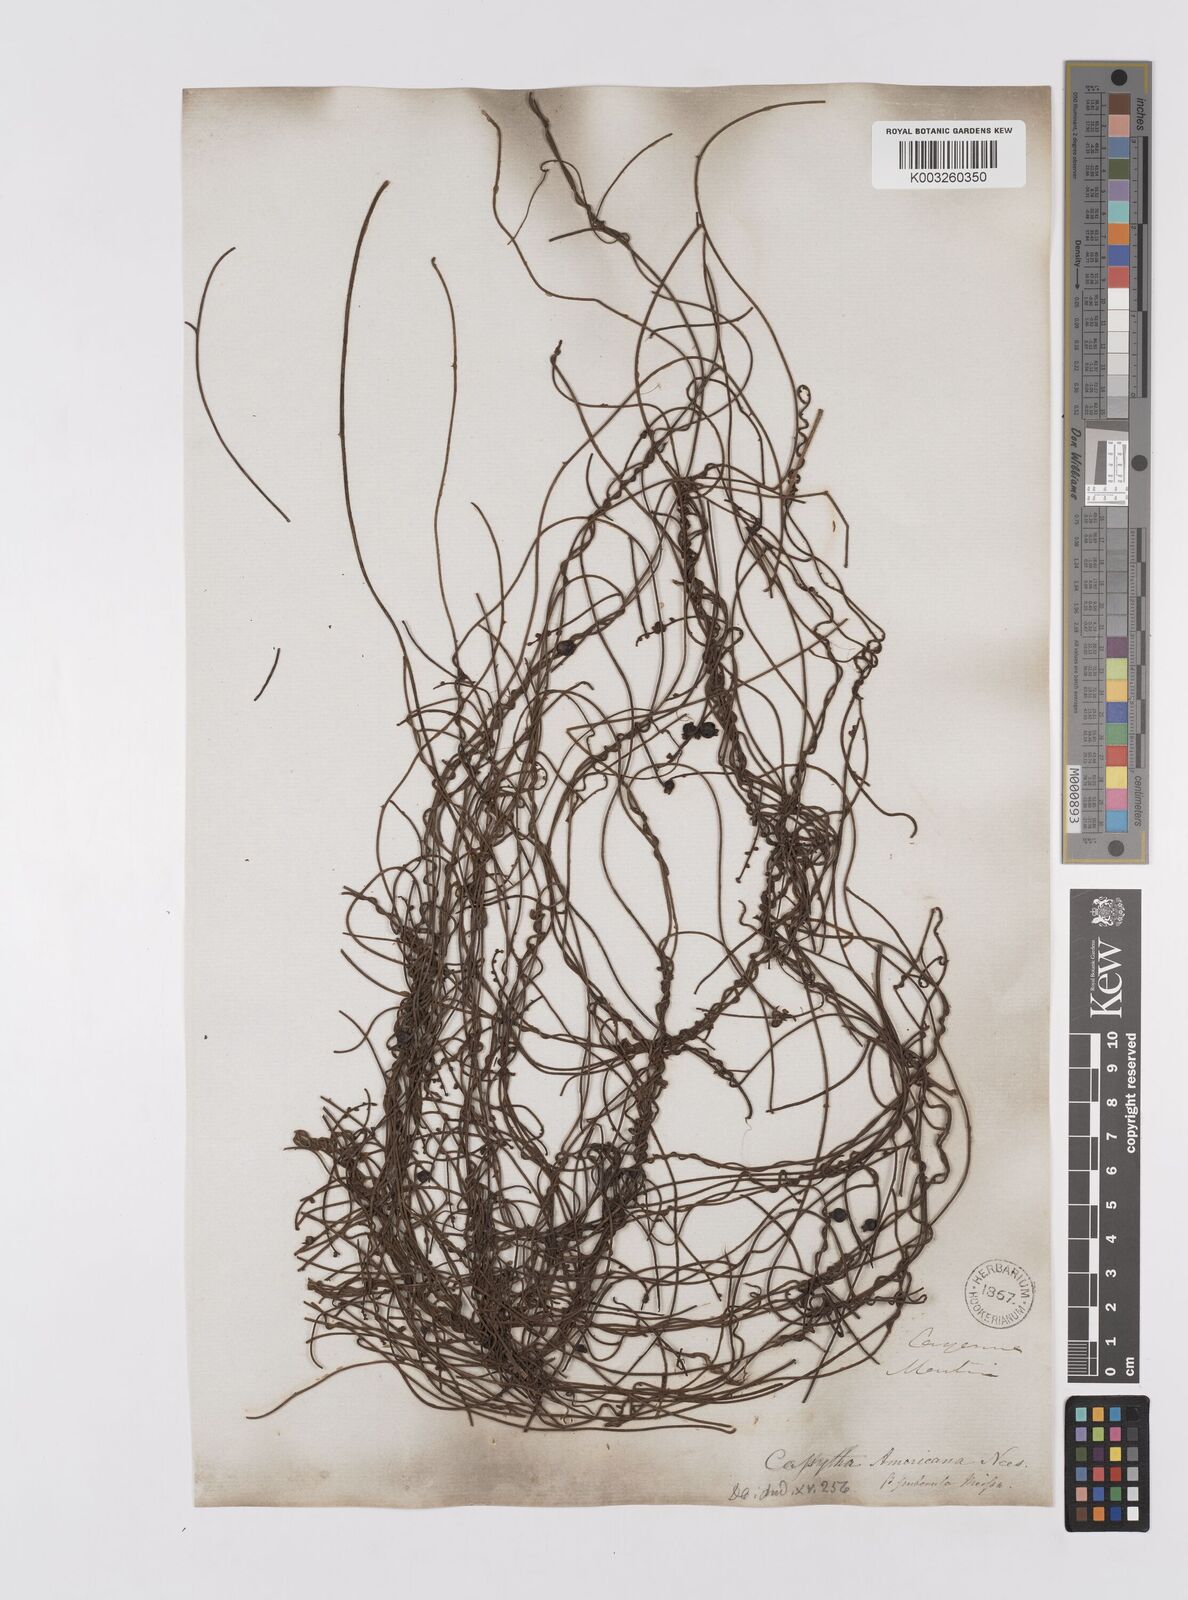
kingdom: Plantae
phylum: Tracheophyta
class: Magnoliopsida
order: Laurales
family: Lauraceae
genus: Cassytha
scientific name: Cassytha filiformis
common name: Dodder-laurel
